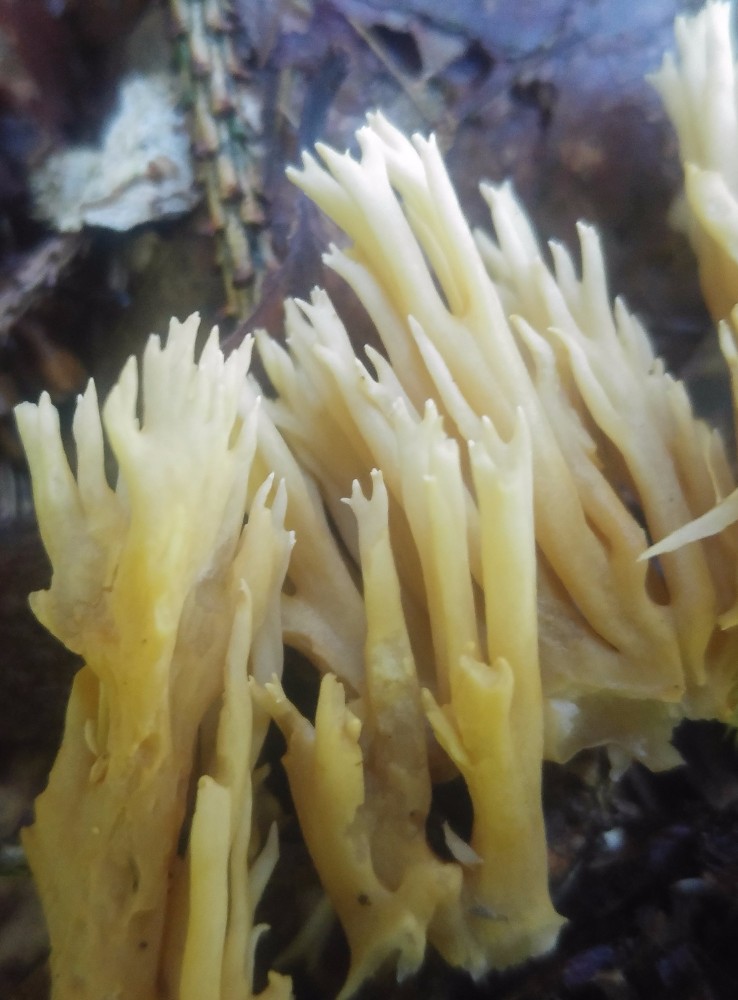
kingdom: Fungi
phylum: Basidiomycota
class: Agaricomycetes
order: Gomphales
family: Gomphaceae
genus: Ramaria
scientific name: Ramaria stricta
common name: rank koralsvamp
